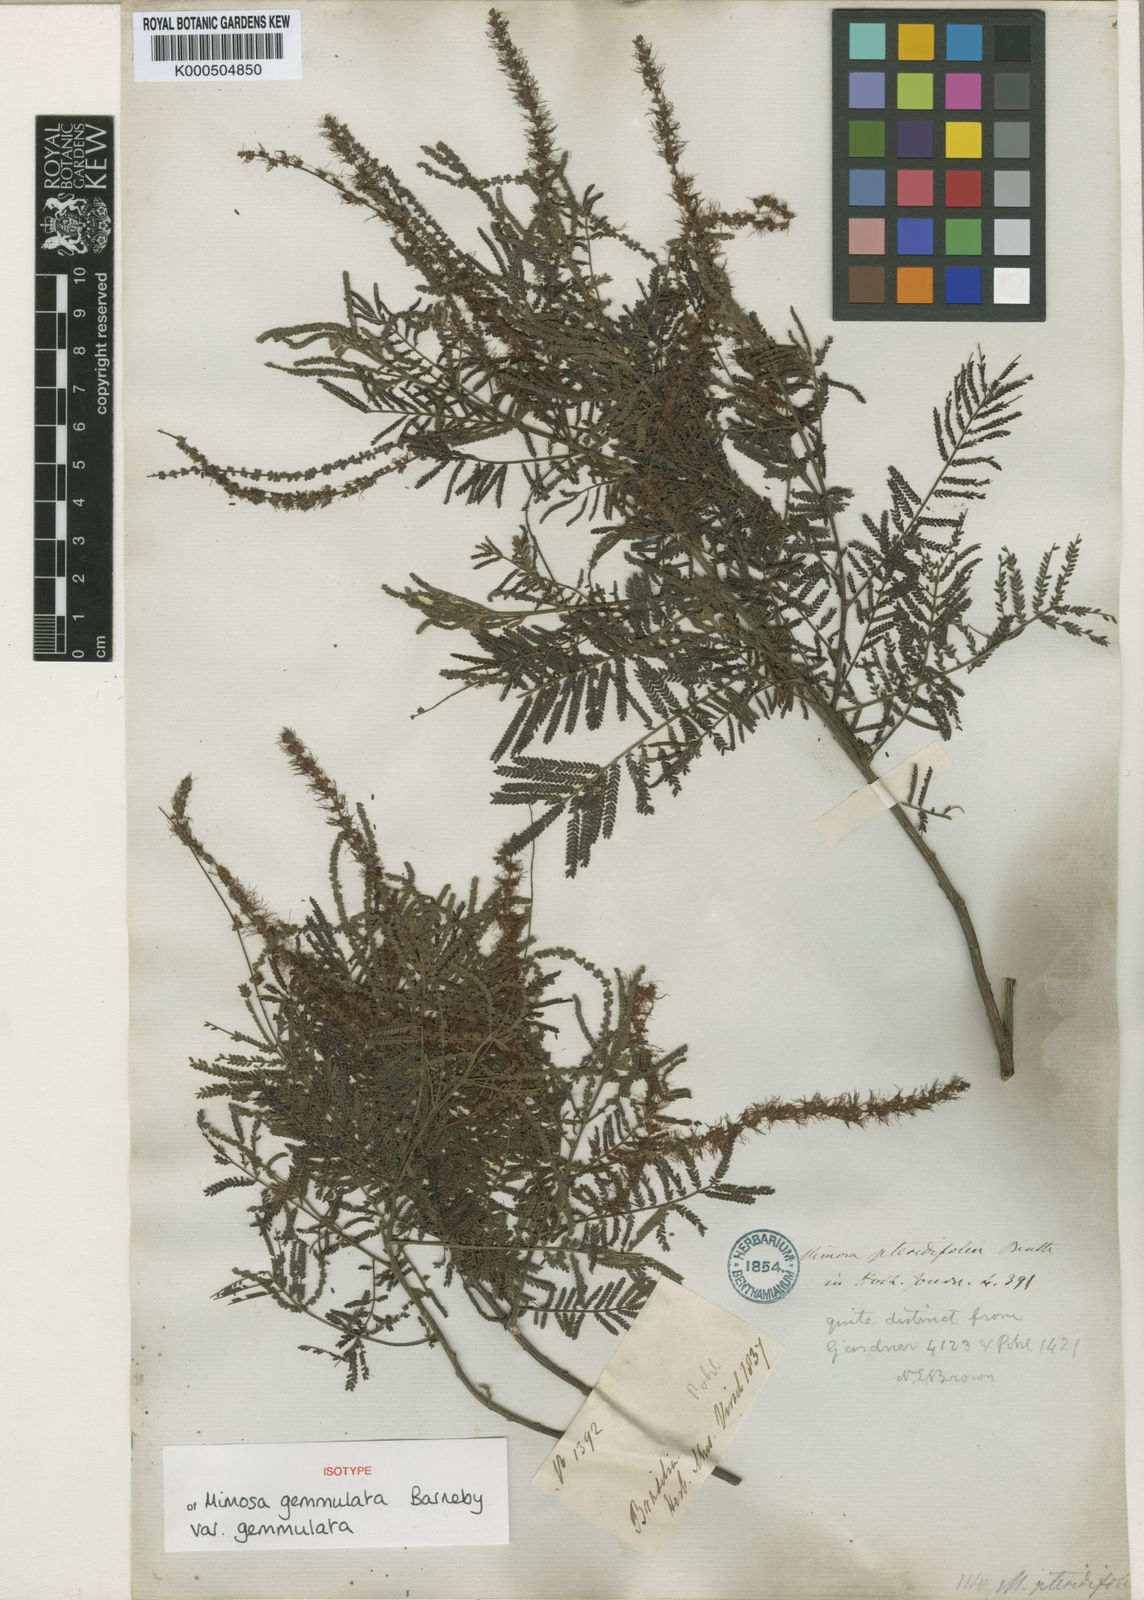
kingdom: Plantae
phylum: Tracheophyta
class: Magnoliopsida
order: Fabales
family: Fabaceae
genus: Mimosa
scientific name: Mimosa gemmulata
